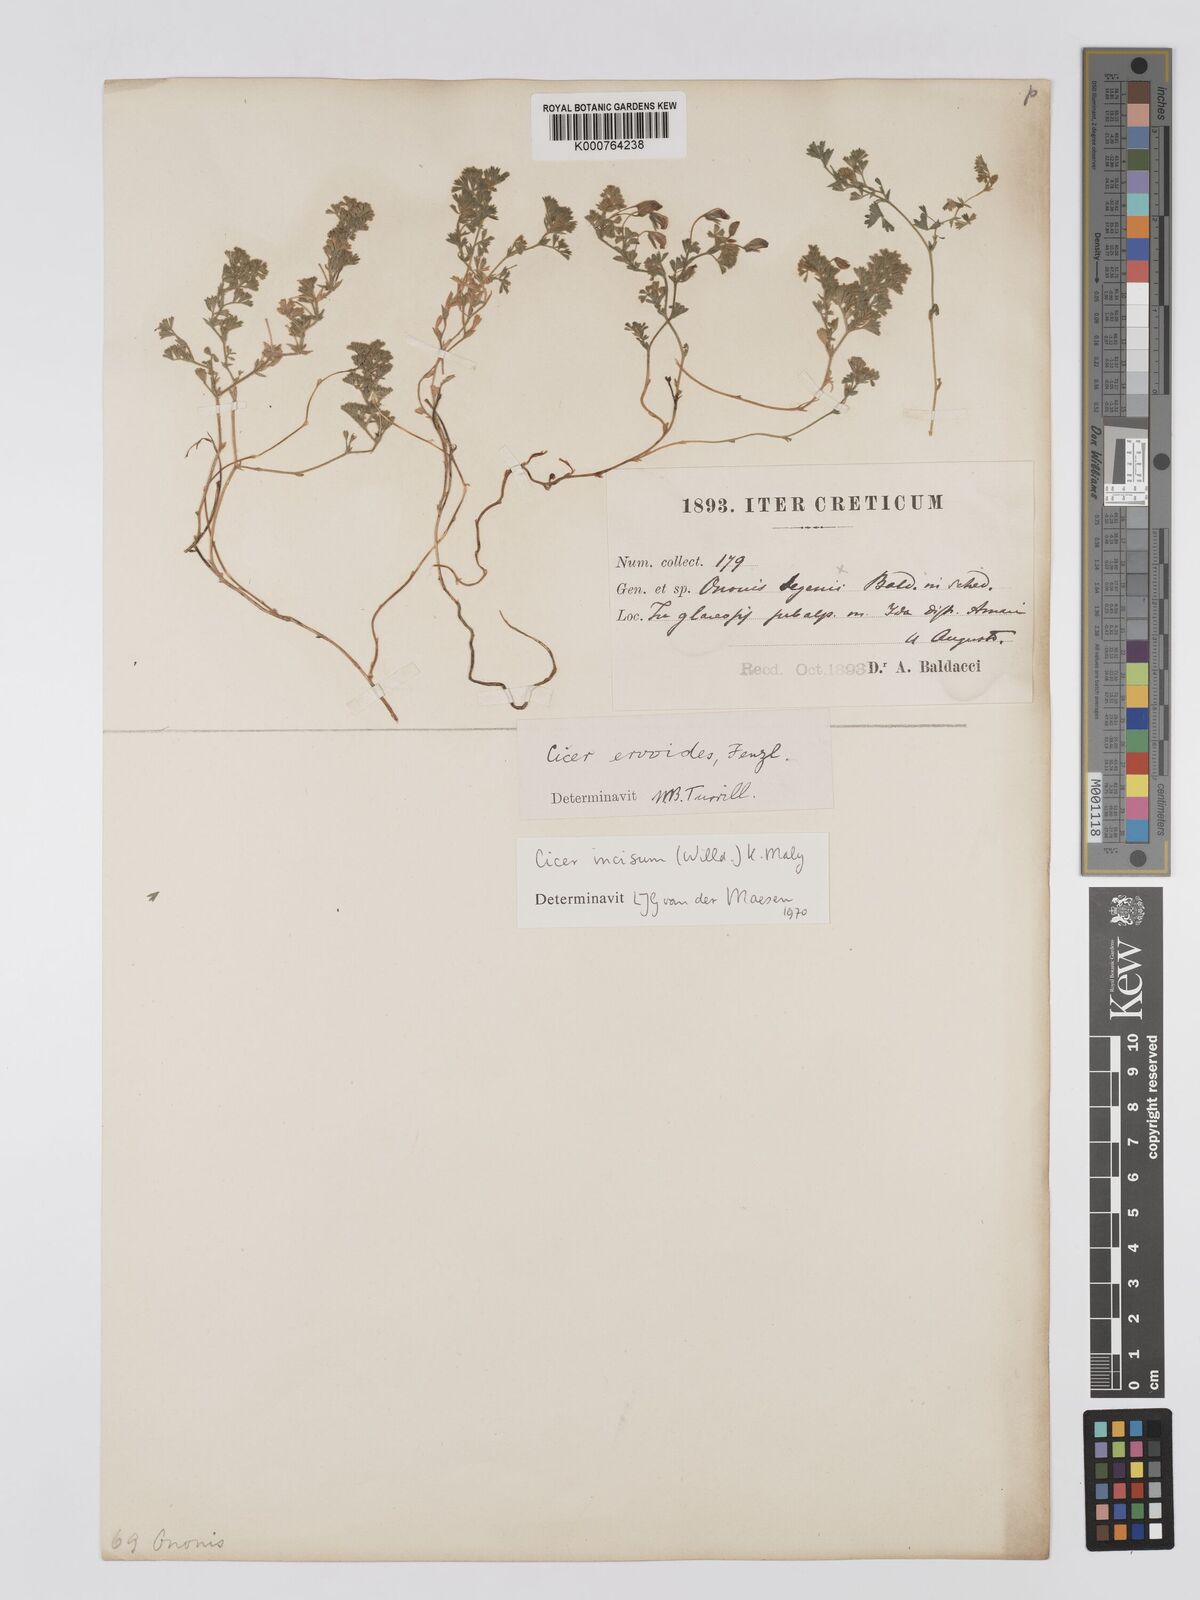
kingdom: Plantae
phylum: Tracheophyta
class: Magnoliopsida
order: Fabales
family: Fabaceae
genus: Cicer
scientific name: Cicer incisum
